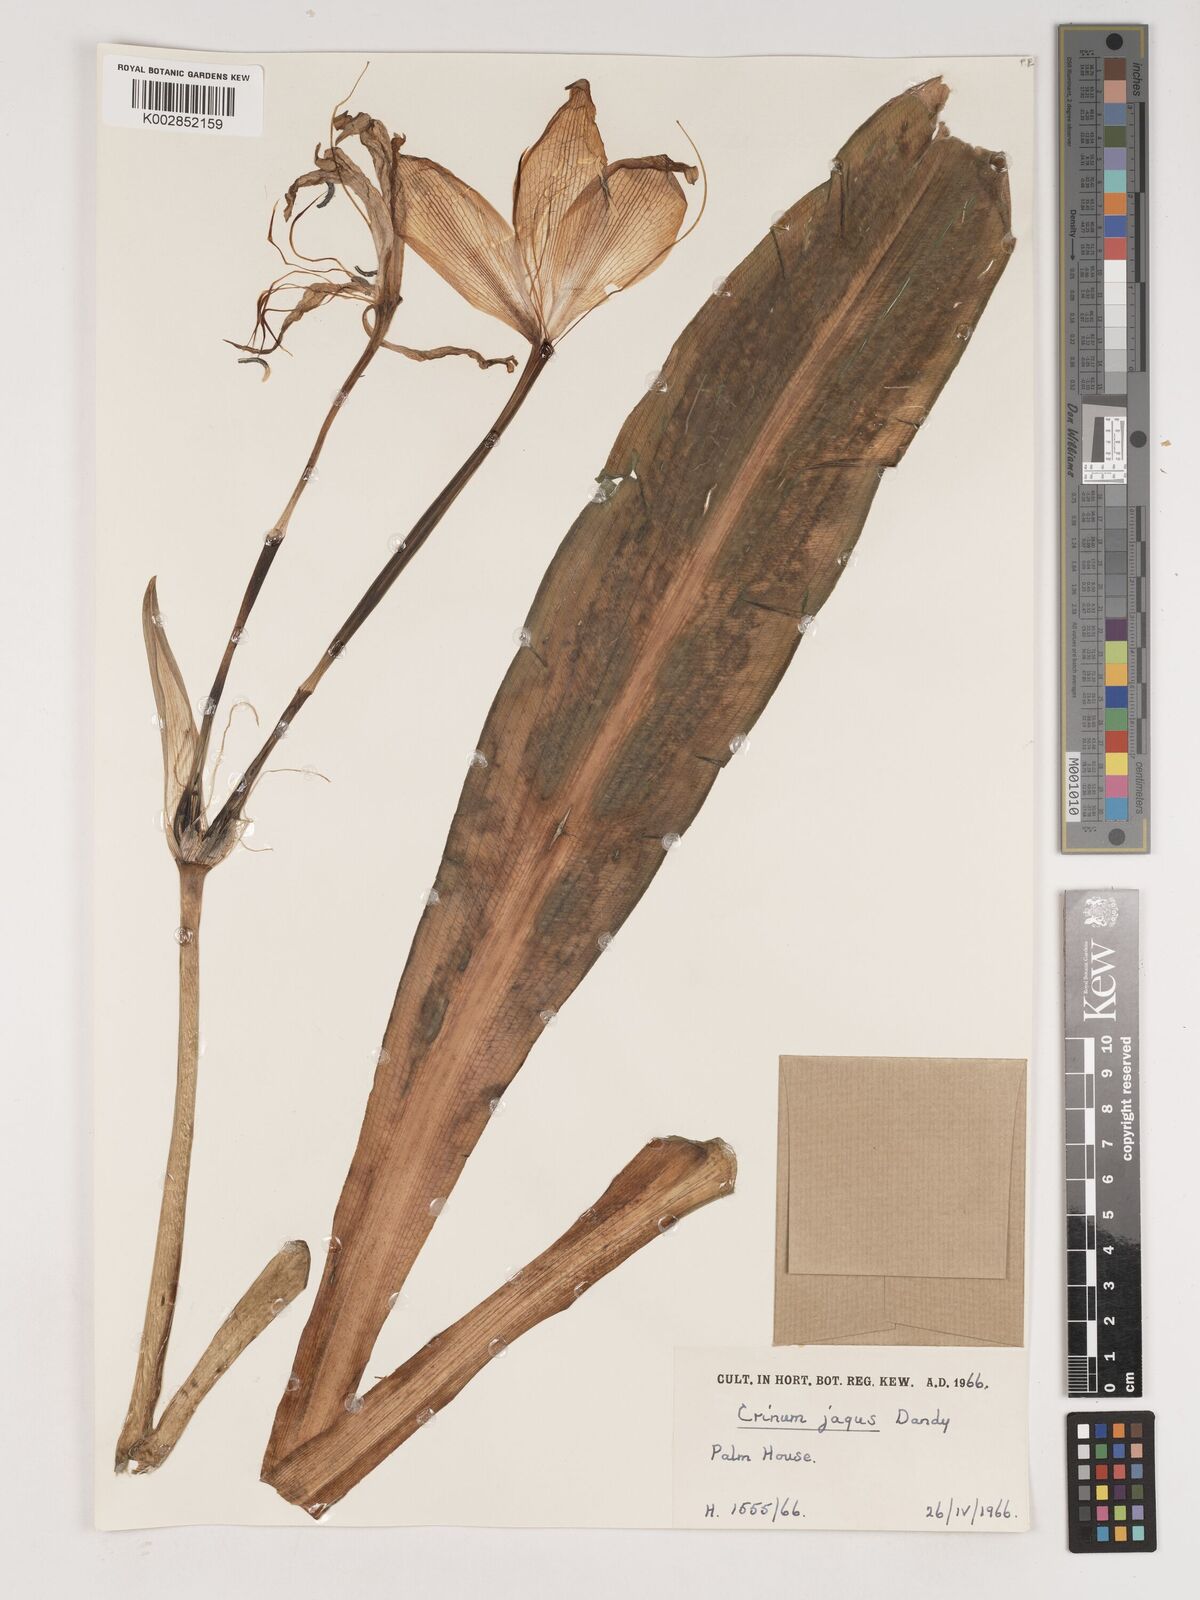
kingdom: Plantae
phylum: Tracheophyta
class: Liliopsida
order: Asparagales
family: Amaryllidaceae
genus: Crinum
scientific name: Crinum jagus
